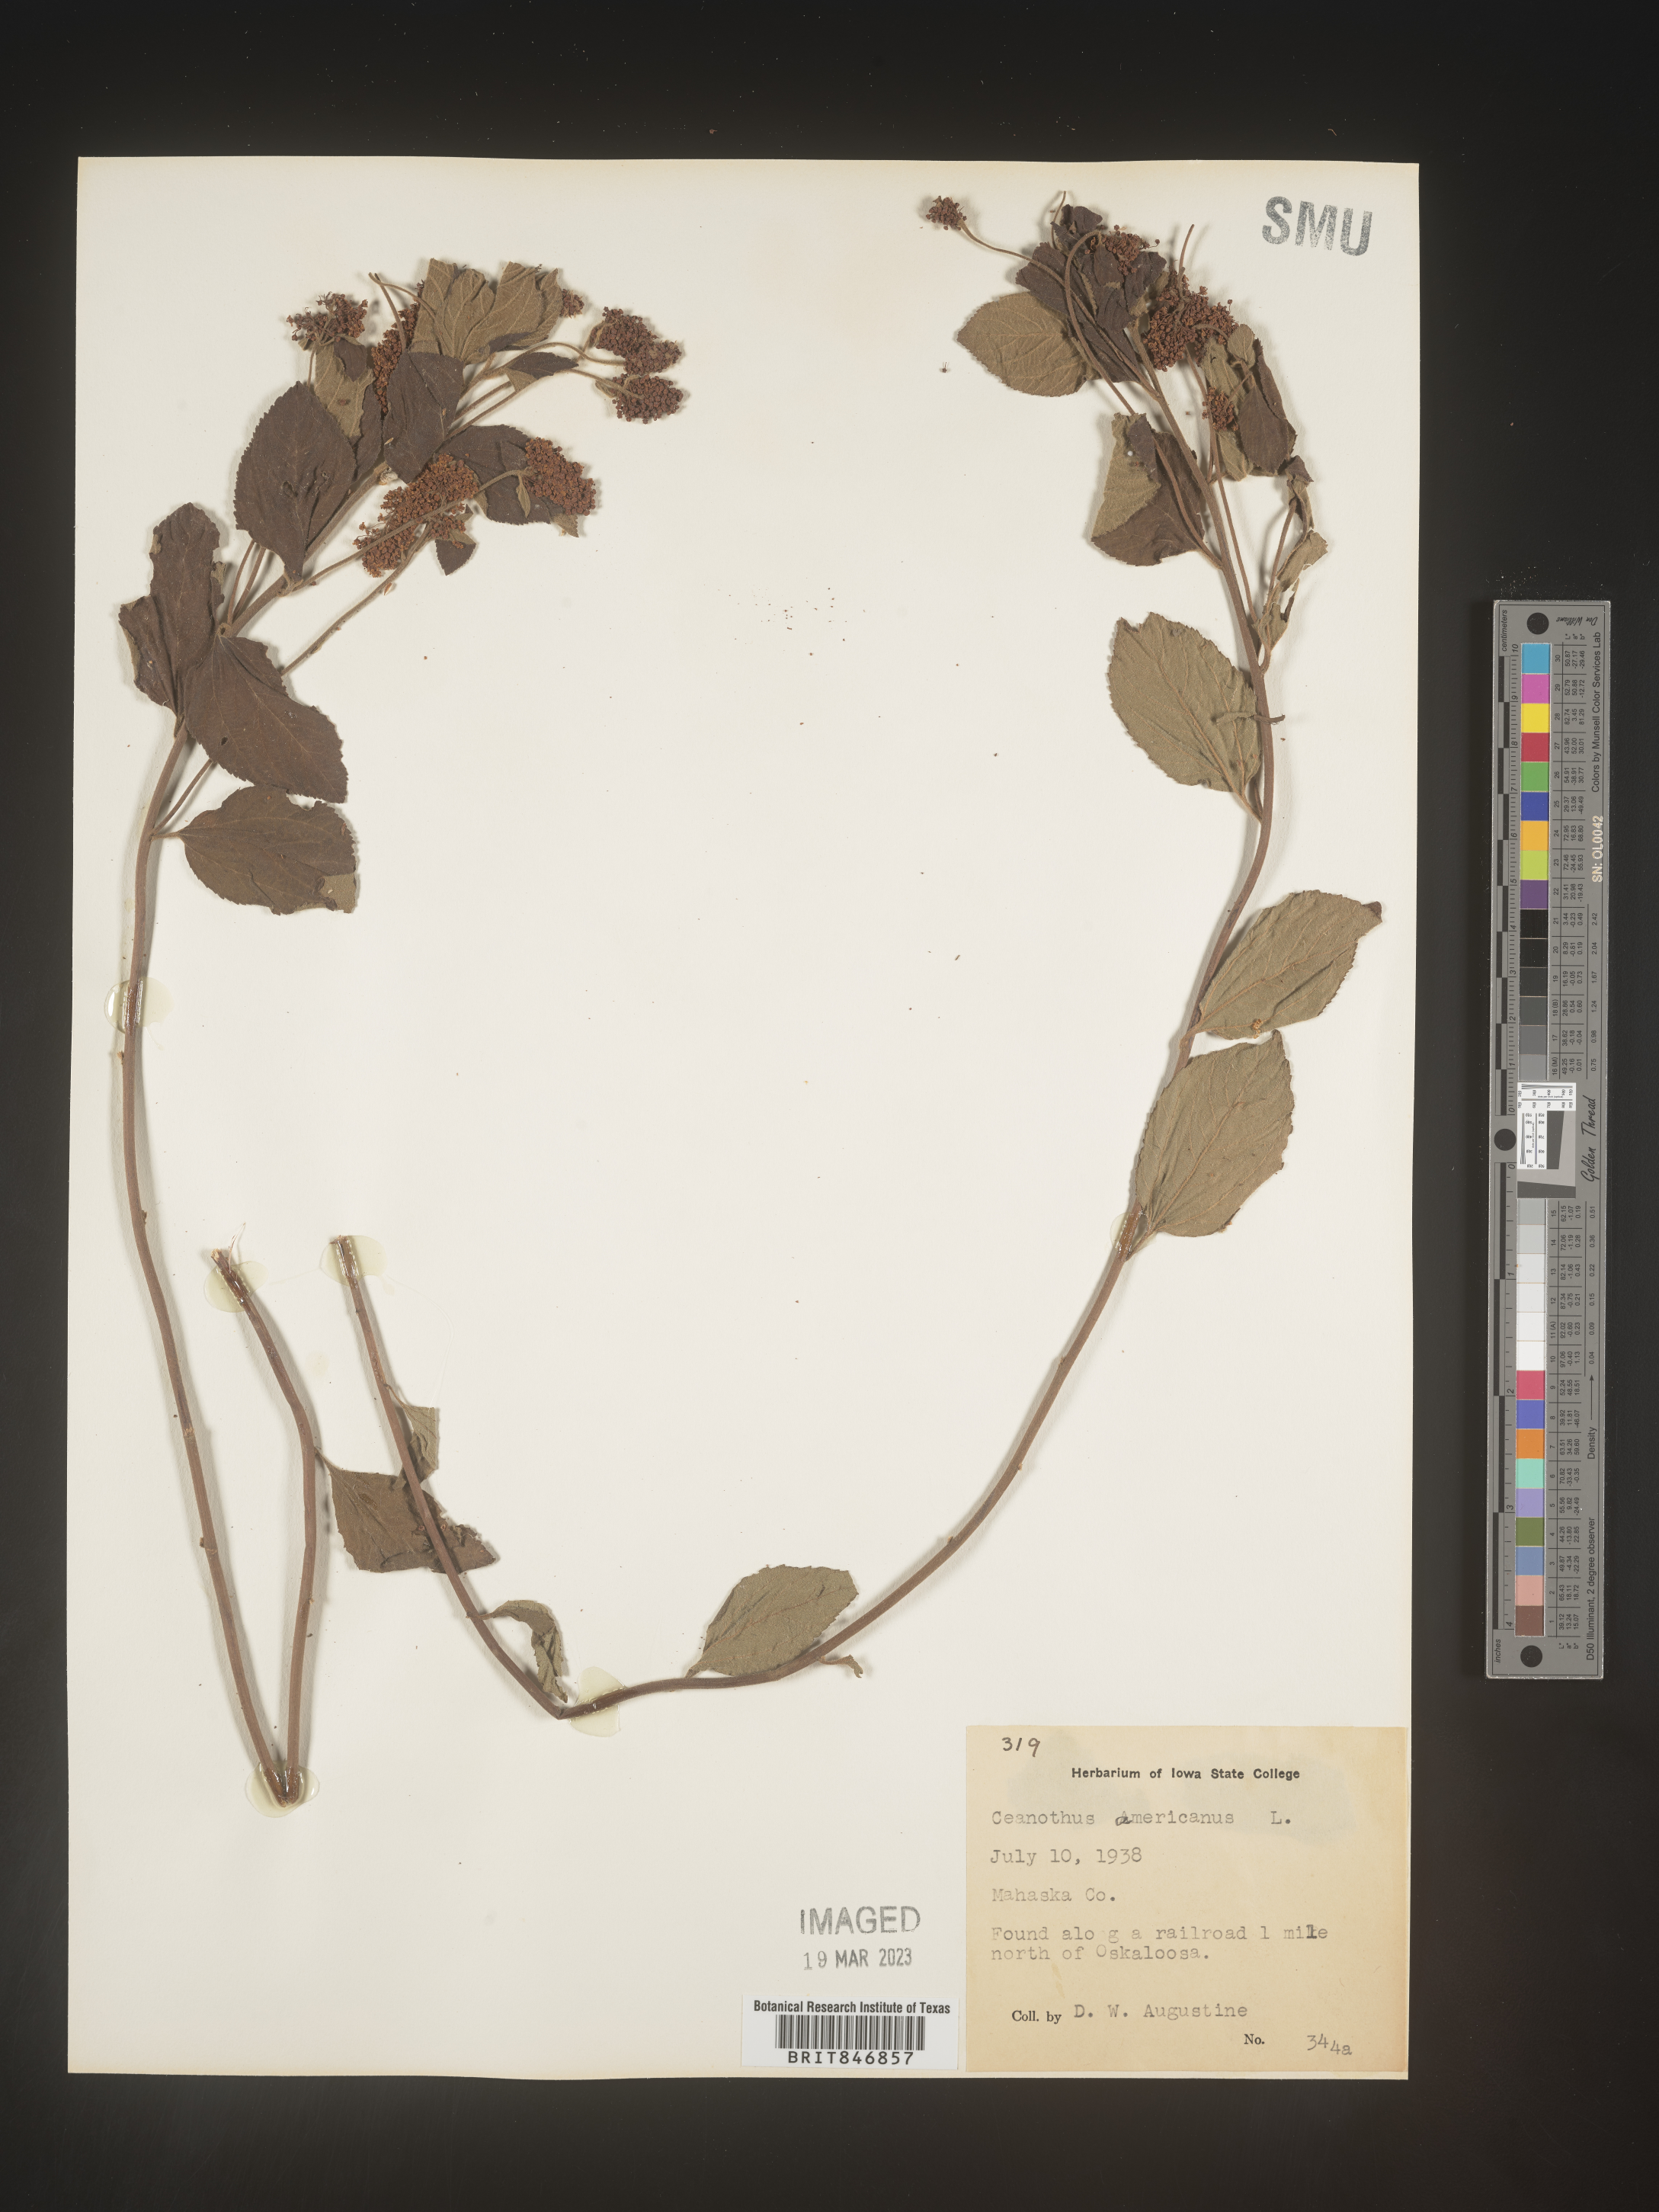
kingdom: Plantae
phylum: Tracheophyta
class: Magnoliopsida
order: Rosales
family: Rhamnaceae
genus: Ceanothus
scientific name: Ceanothus americanus
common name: Redroot
